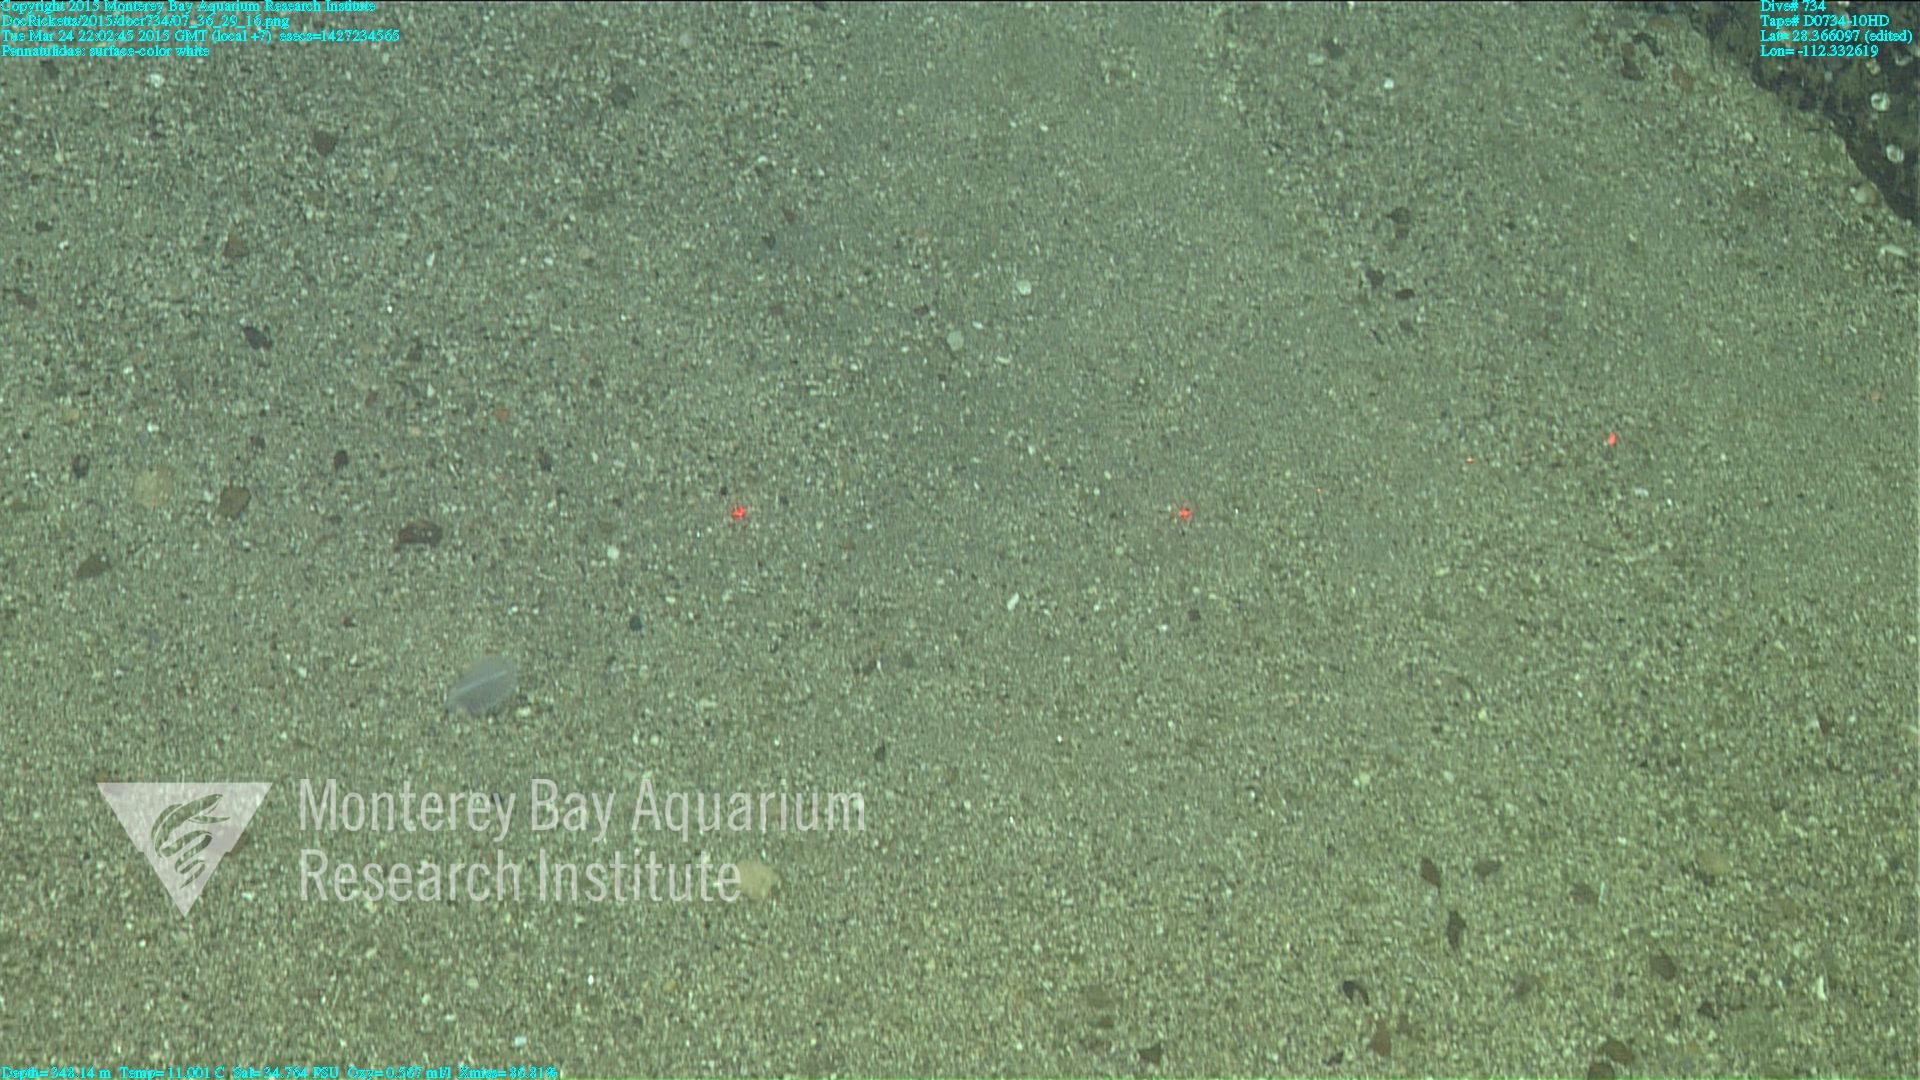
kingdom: Animalia
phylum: Cnidaria
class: Anthozoa
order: Scleralcyonacea
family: Pennatulidae
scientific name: Pennatulidae
